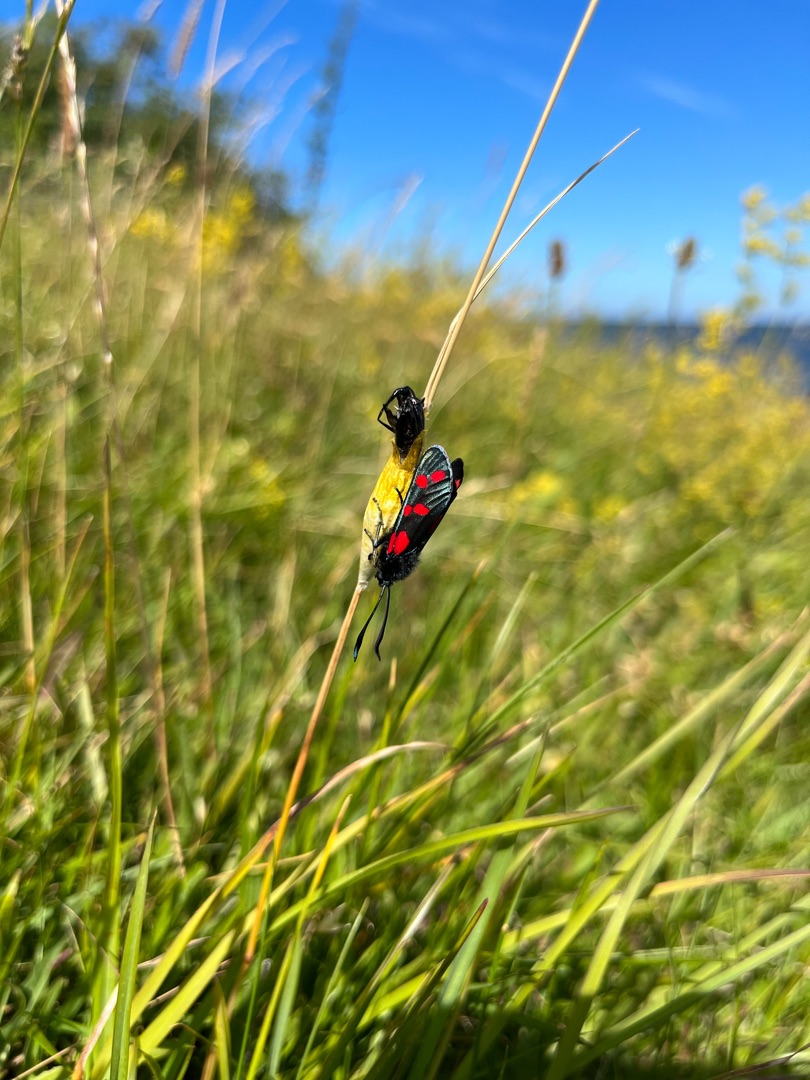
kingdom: Animalia
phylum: Arthropoda
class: Insecta
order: Lepidoptera
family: Zygaenidae
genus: Zygaena
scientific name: Zygaena filipendulae
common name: Seksplettet køllesværmer
